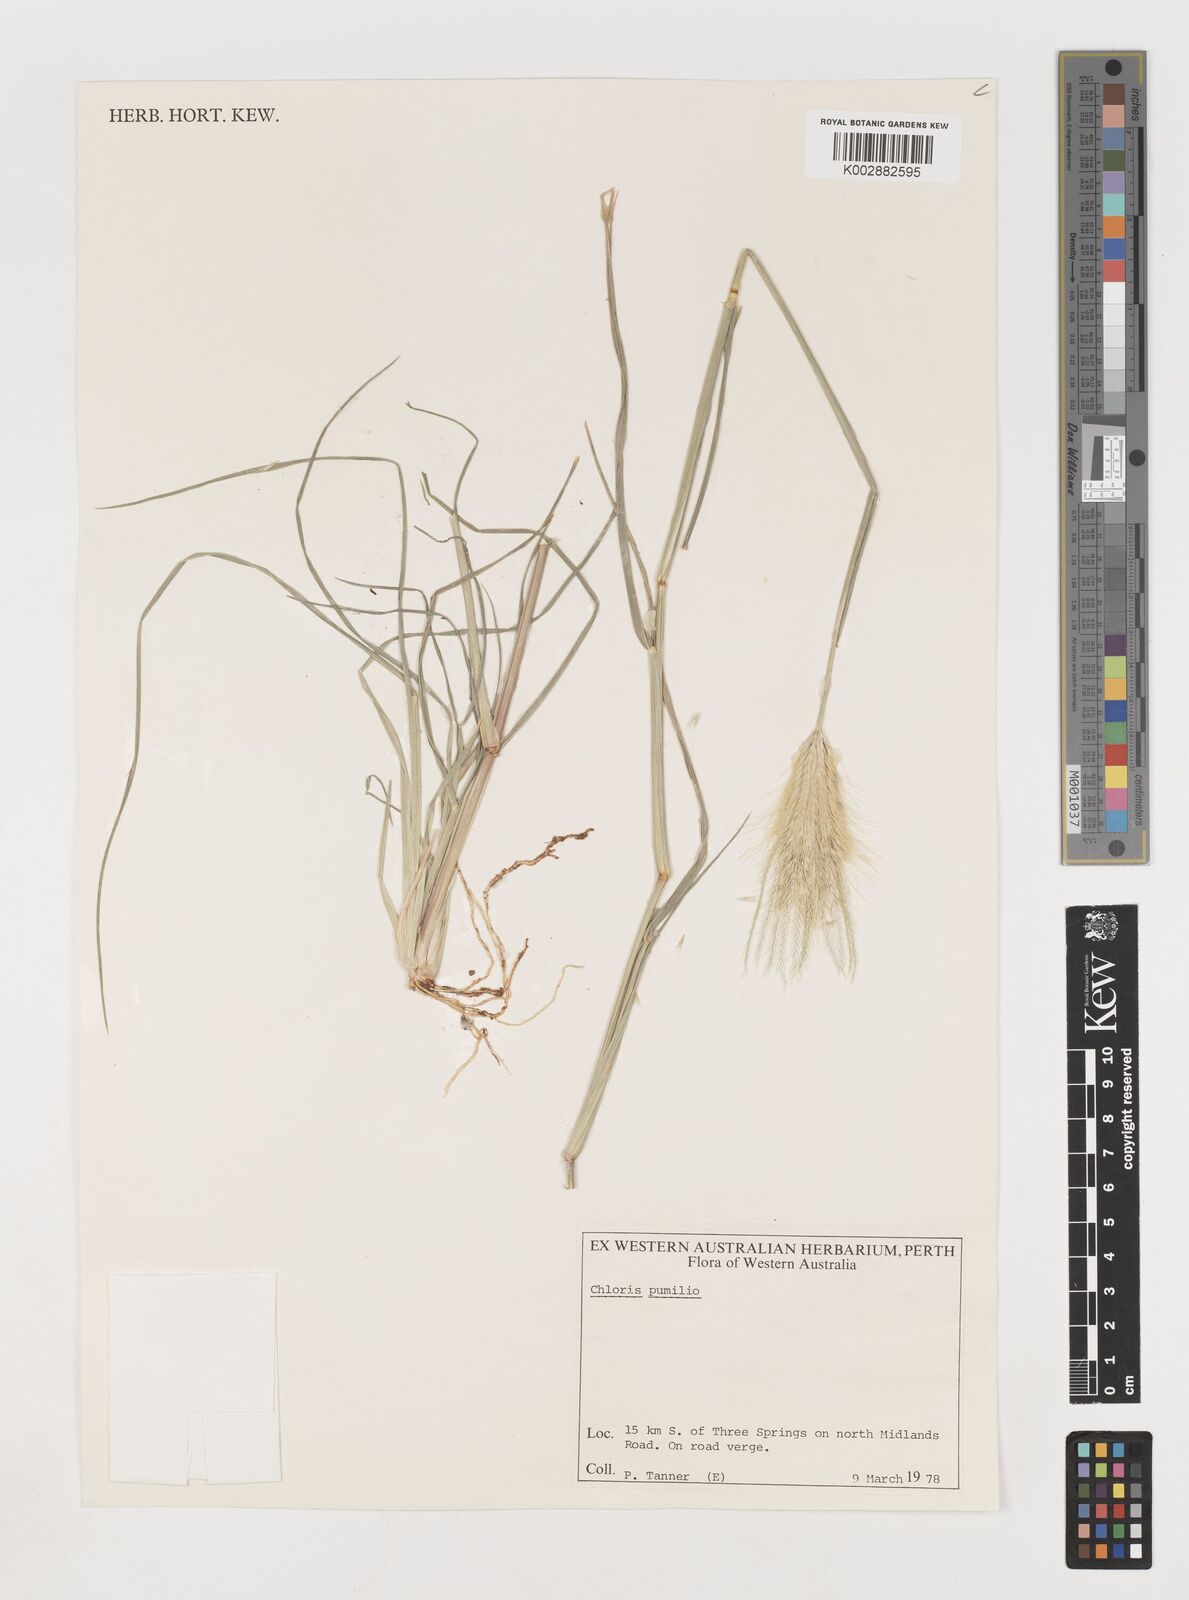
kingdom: Plantae
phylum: Tracheophyta
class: Liliopsida
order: Poales
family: Poaceae
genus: Chloris
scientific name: Chloris pumilio
